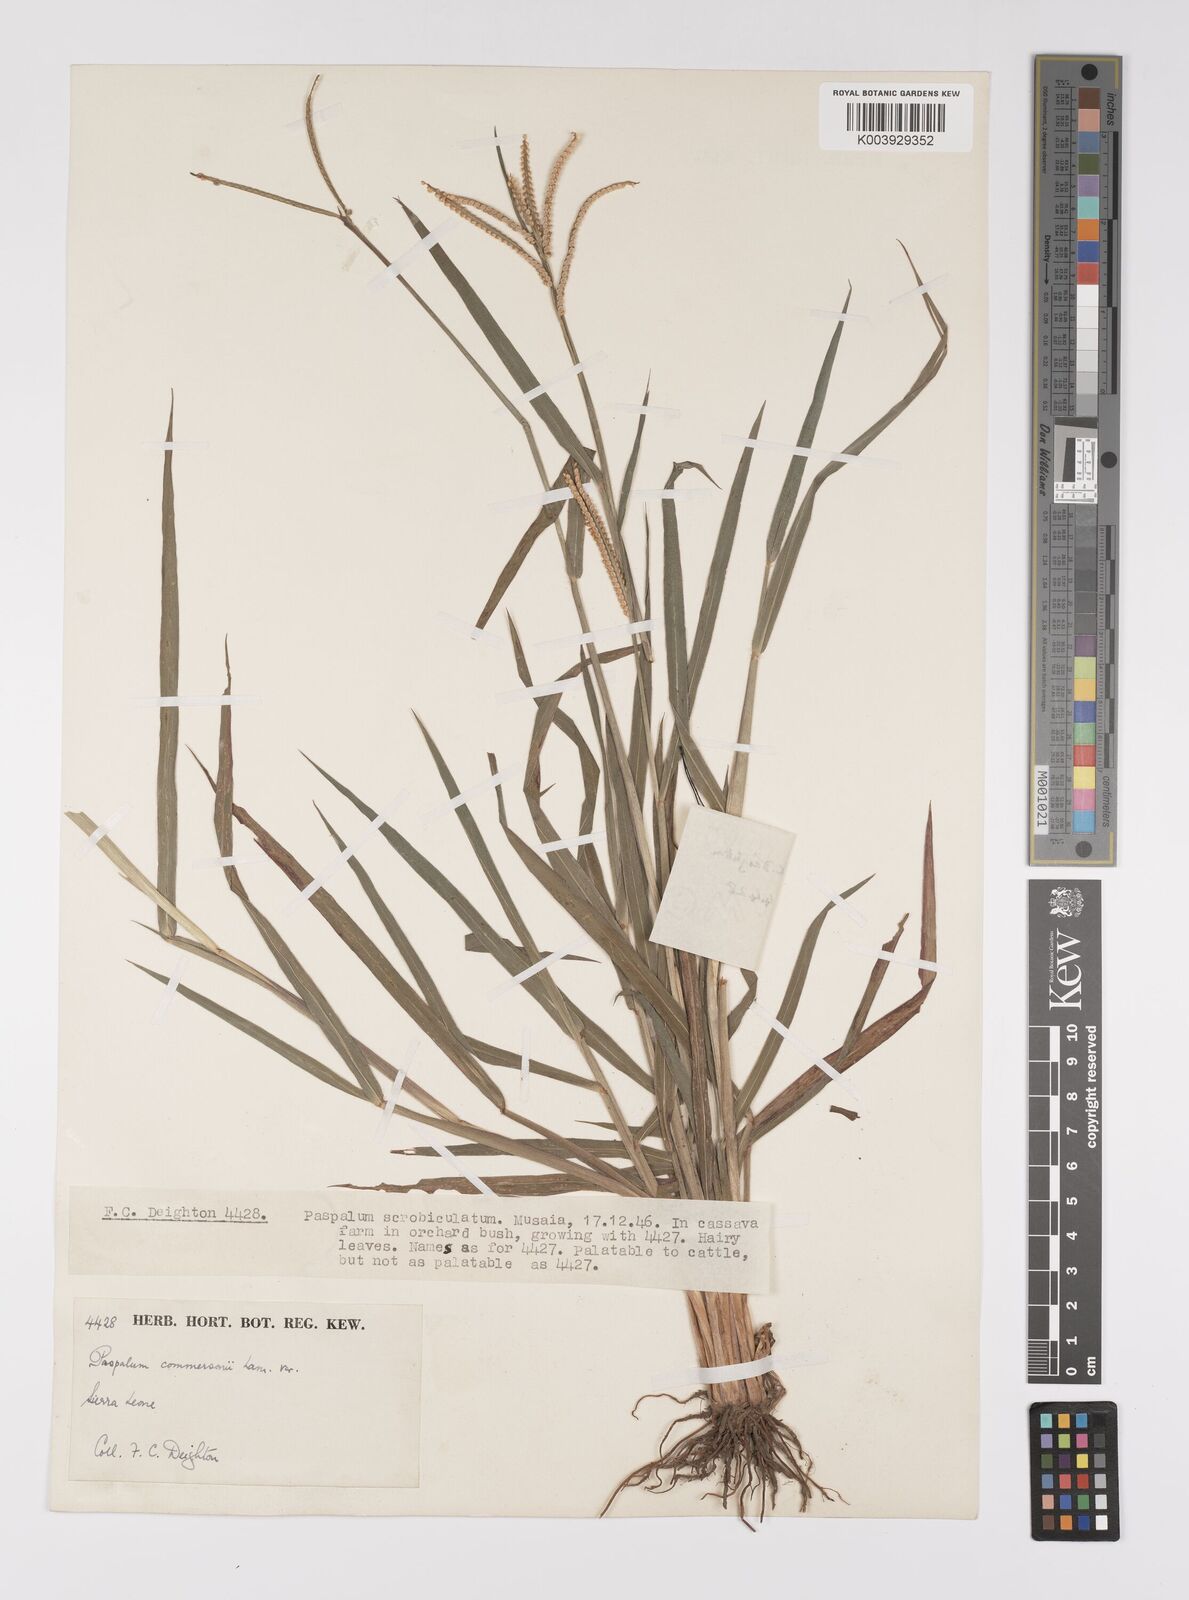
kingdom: Plantae
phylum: Tracheophyta
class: Liliopsida
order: Poales
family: Poaceae
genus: Paspalum
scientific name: Paspalum scrobiculatum
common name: Kodo millet
